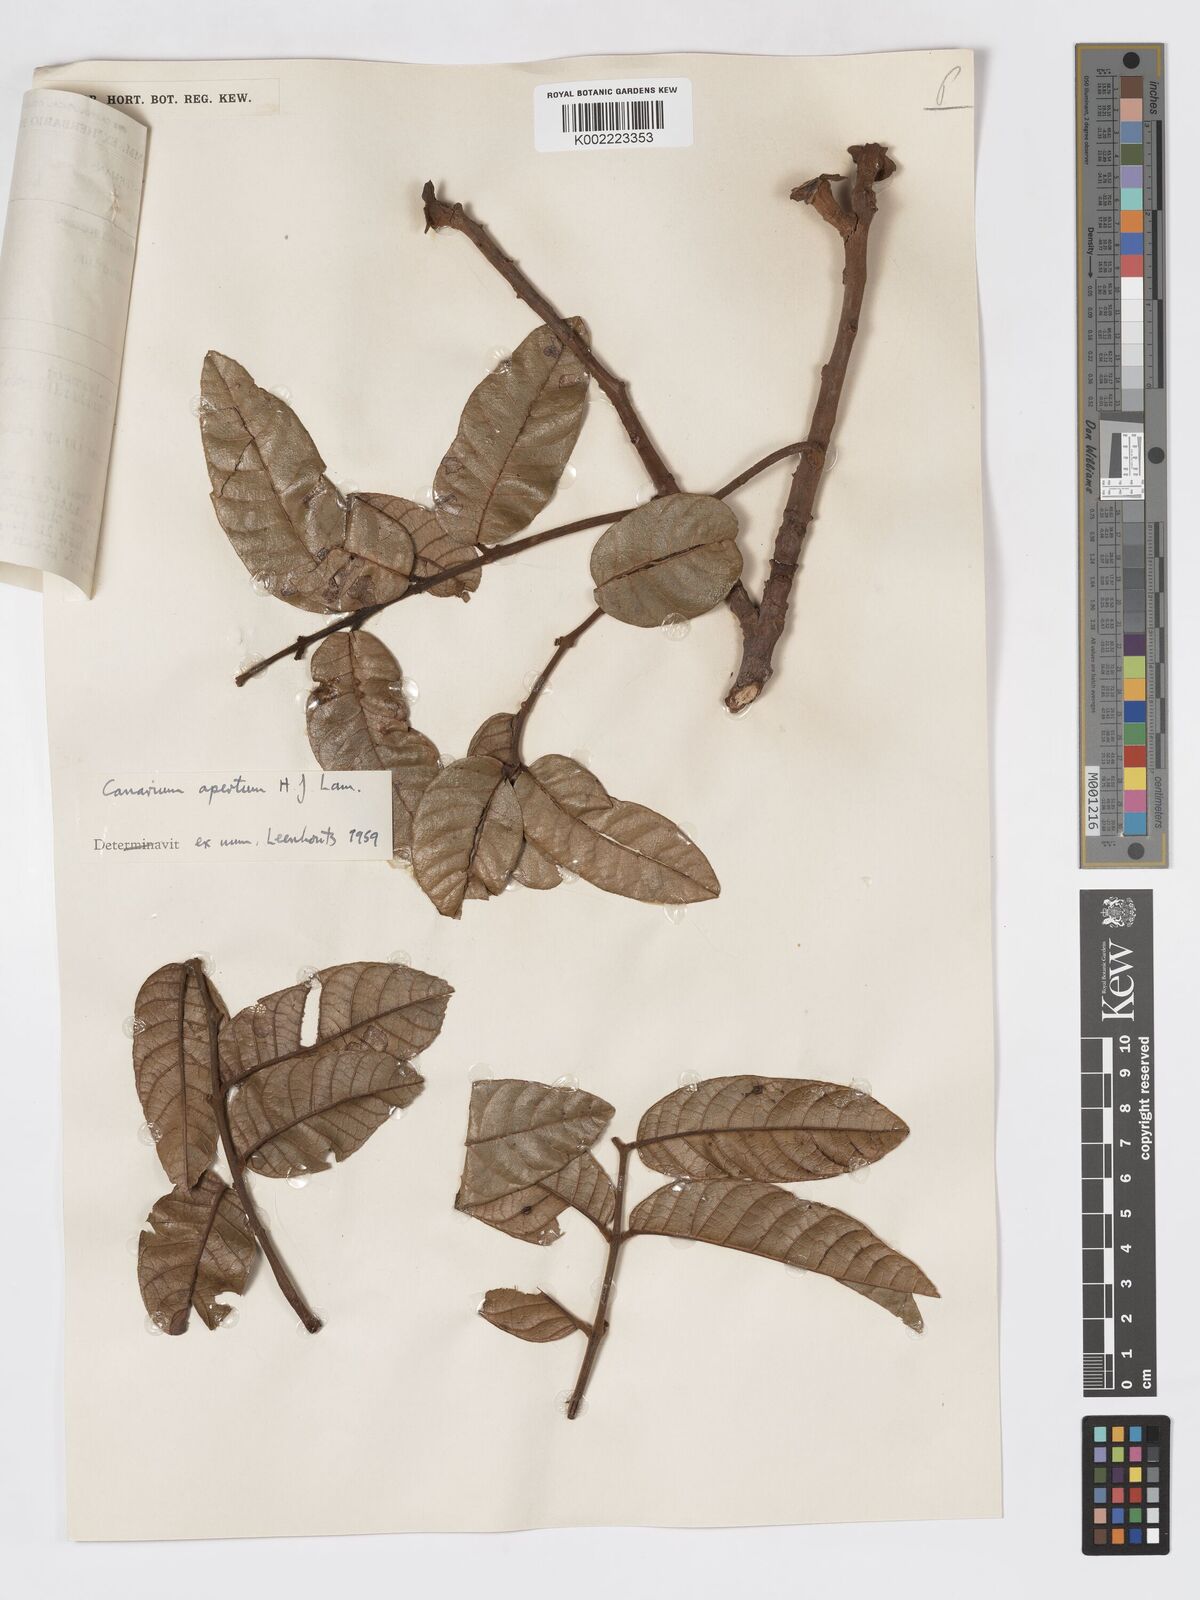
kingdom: Plantae
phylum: Tracheophyta
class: Magnoliopsida
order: Sapindales
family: Burseraceae
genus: Canarium
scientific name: Canarium apertum
